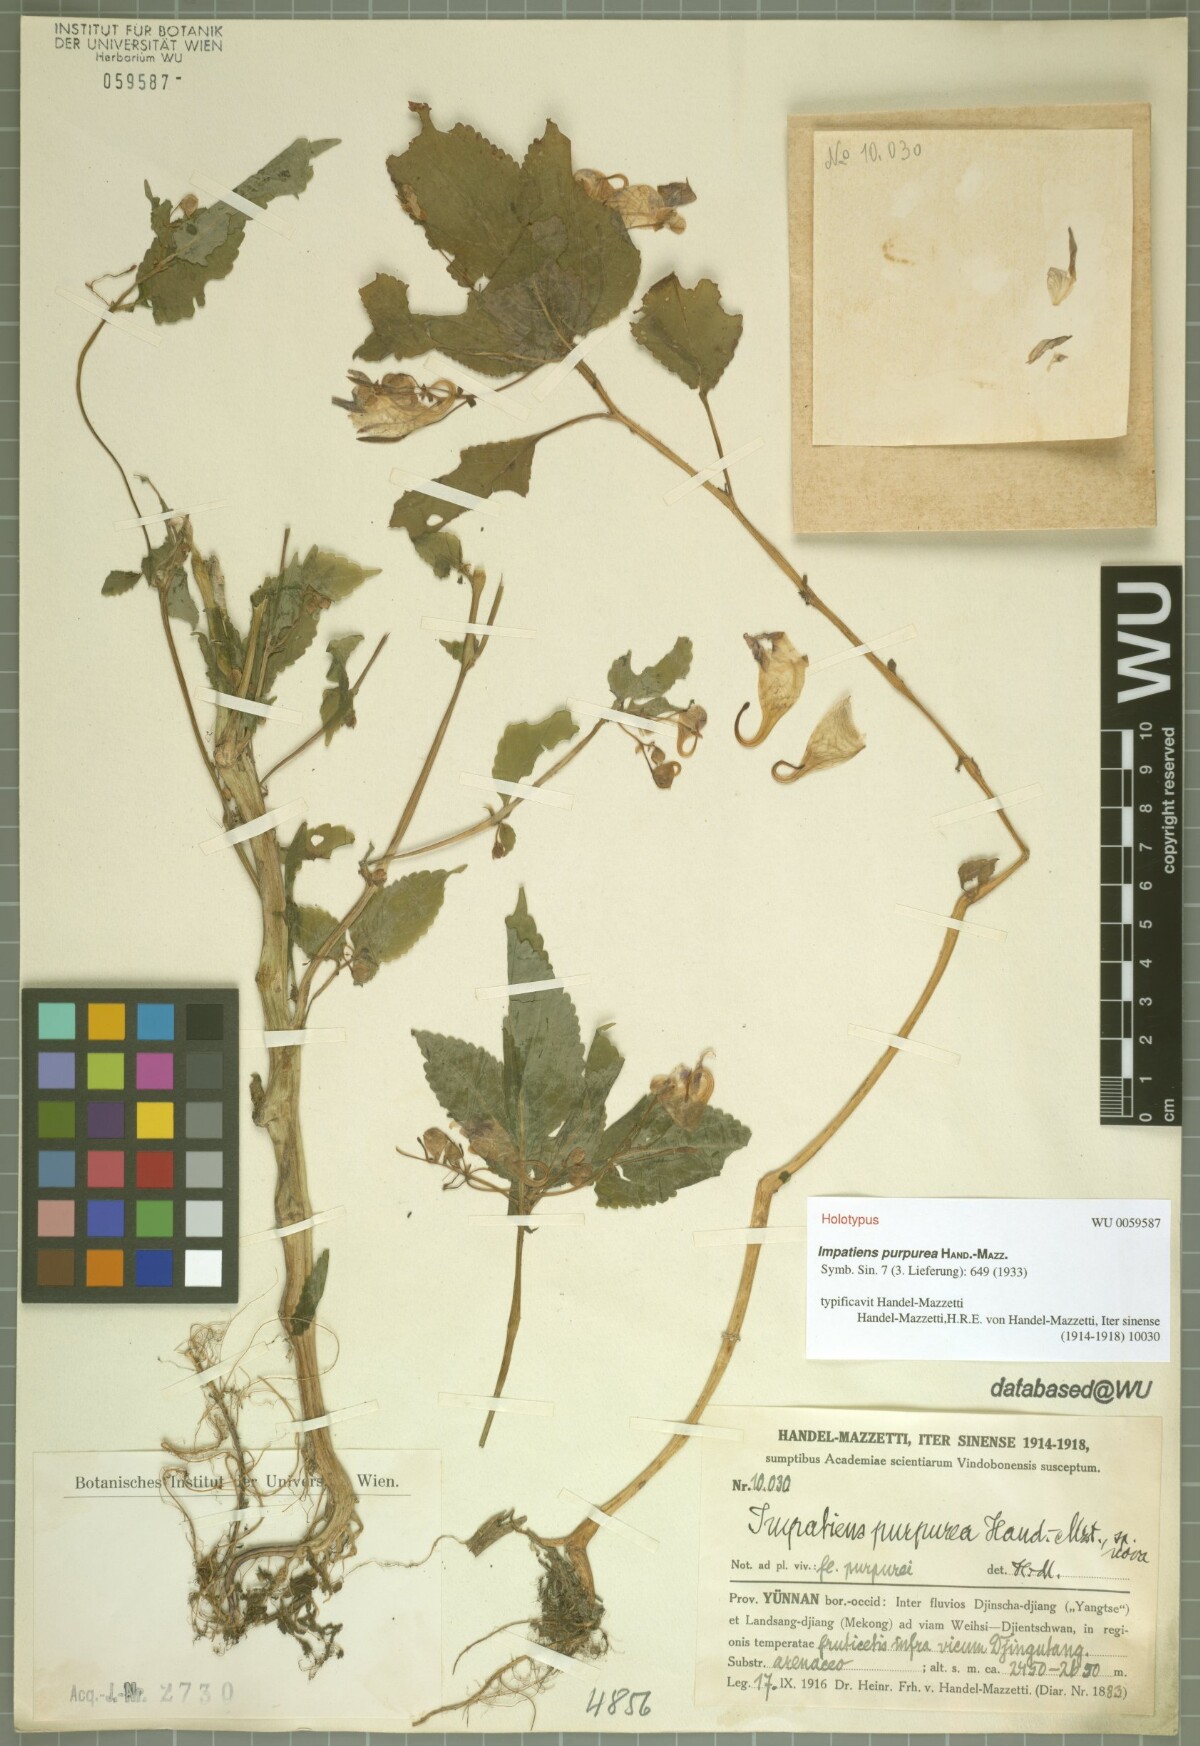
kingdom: Plantae
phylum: Tracheophyta
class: Magnoliopsida
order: Ericales
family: Balsaminaceae
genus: Impatiens
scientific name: Impatiens purpurea
